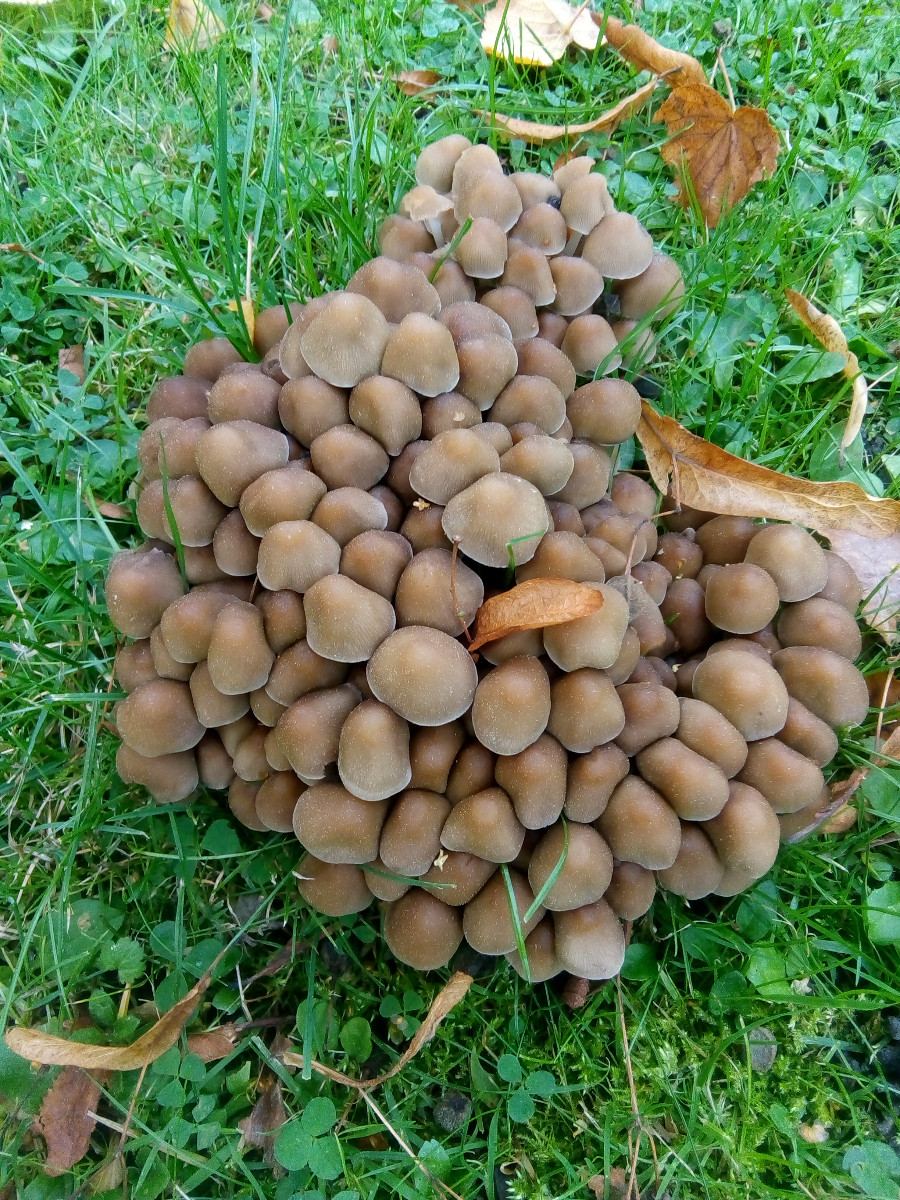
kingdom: Fungi
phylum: Basidiomycota
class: Agaricomycetes
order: Agaricales
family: Psathyrellaceae
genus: Britzelmayria
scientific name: Britzelmayria multipedata
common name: knippe-mørkhat
